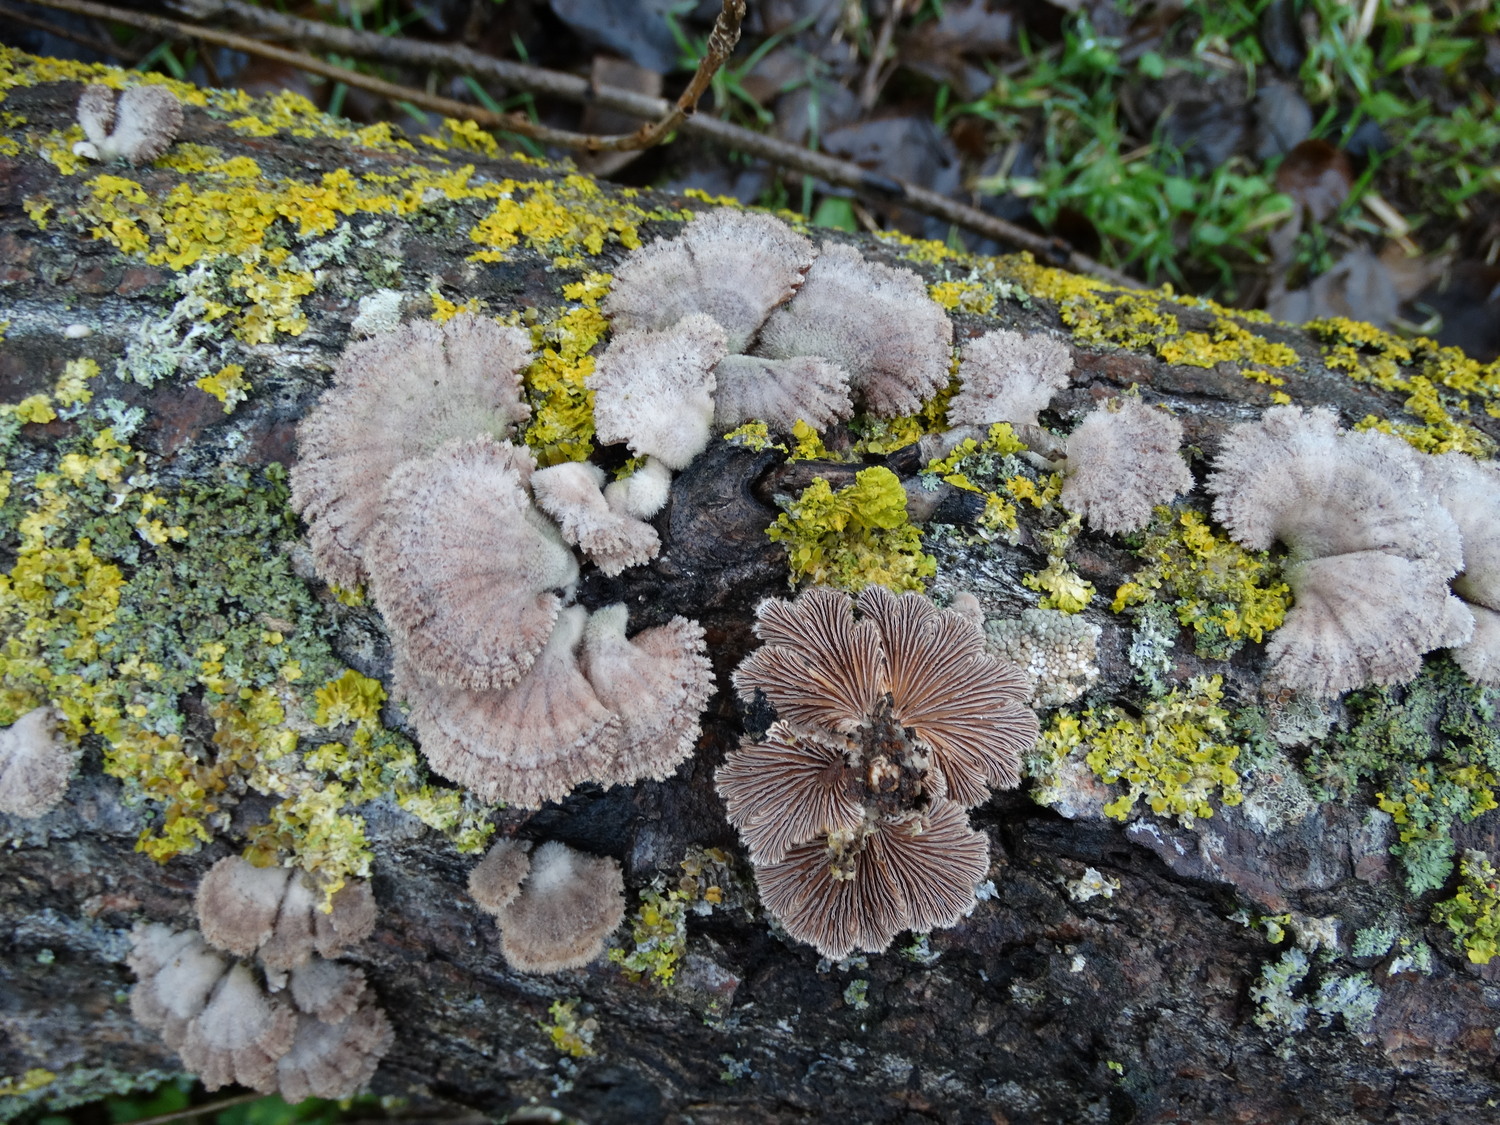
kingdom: Fungi
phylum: Basidiomycota
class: Agaricomycetes
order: Agaricales
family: Schizophyllaceae
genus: Schizophyllum
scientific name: Schizophyllum commune
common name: kløvblad
